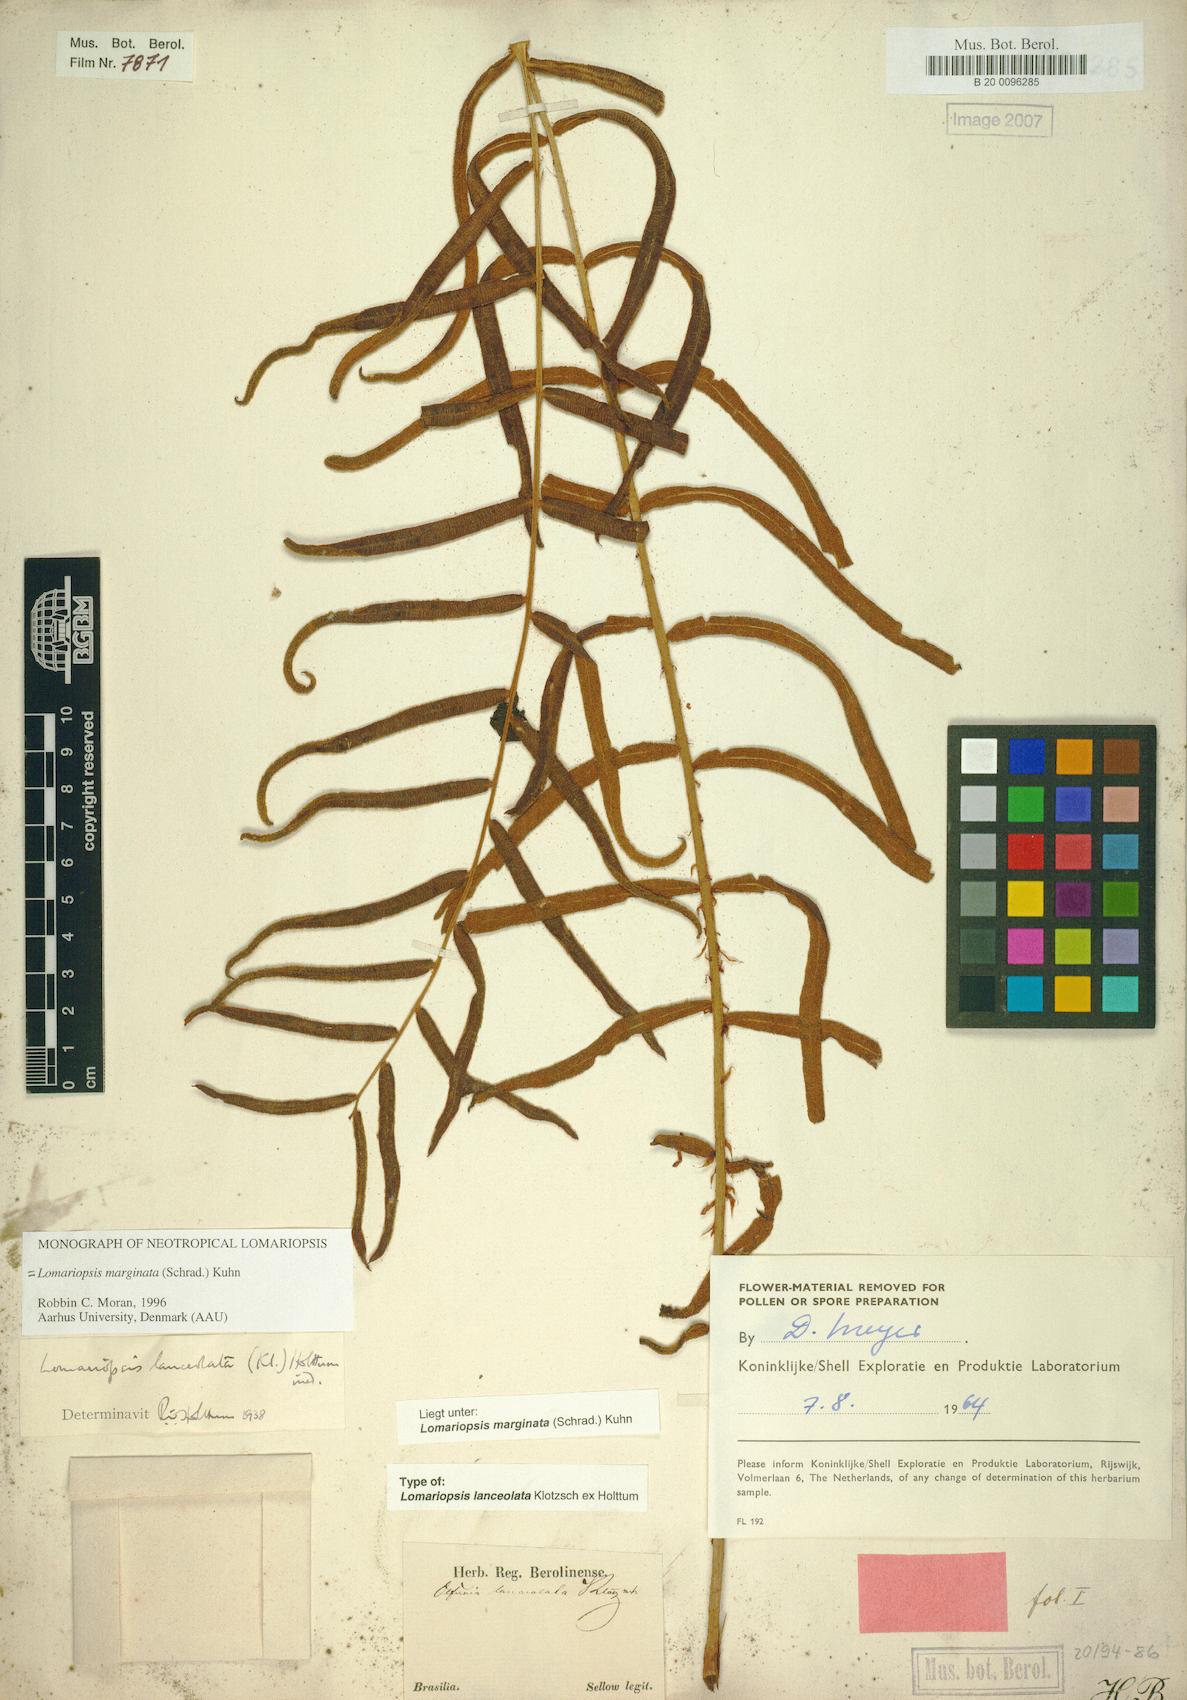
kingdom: Plantae
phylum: Tracheophyta
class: Polypodiopsida
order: Polypodiales
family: Lomariopsidaceae
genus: Lomariopsis
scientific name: Lomariopsis marginata
